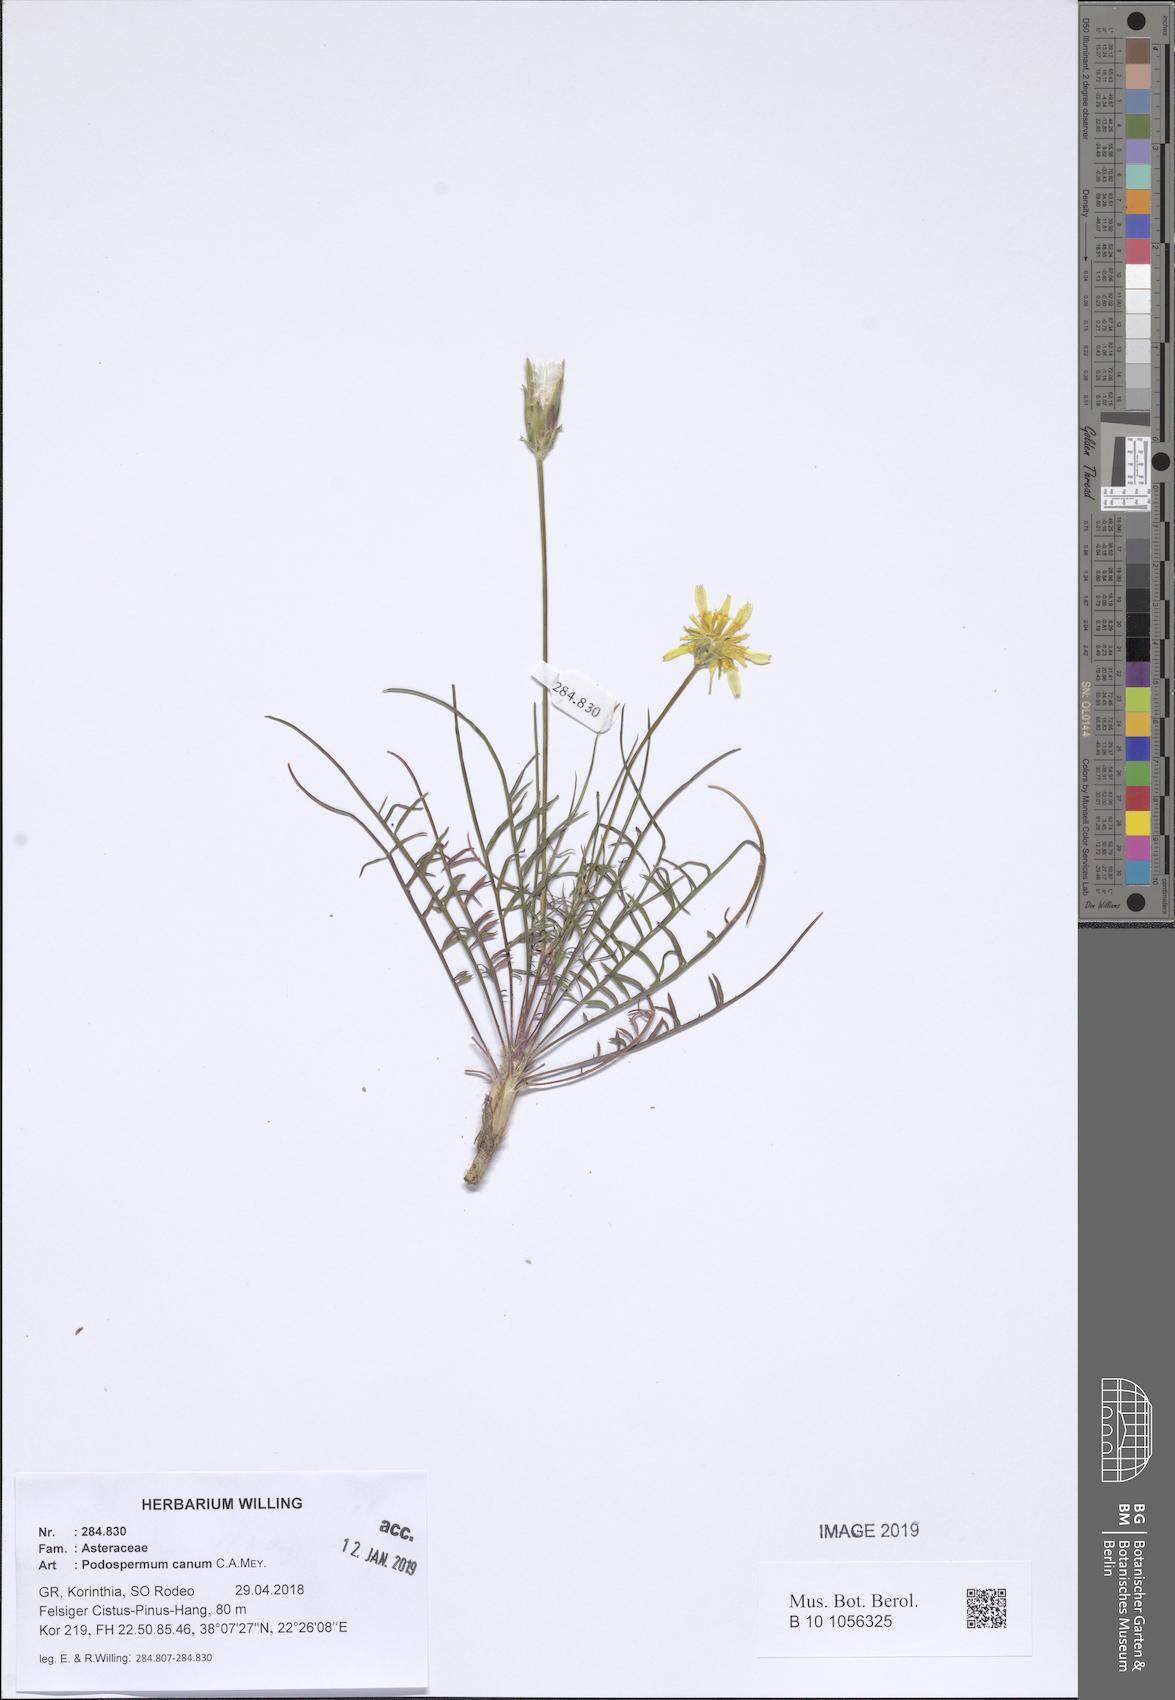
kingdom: Plantae
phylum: Tracheophyta
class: Magnoliopsida
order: Asterales
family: Asteraceae
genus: Scorzonera
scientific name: Scorzonera cana
